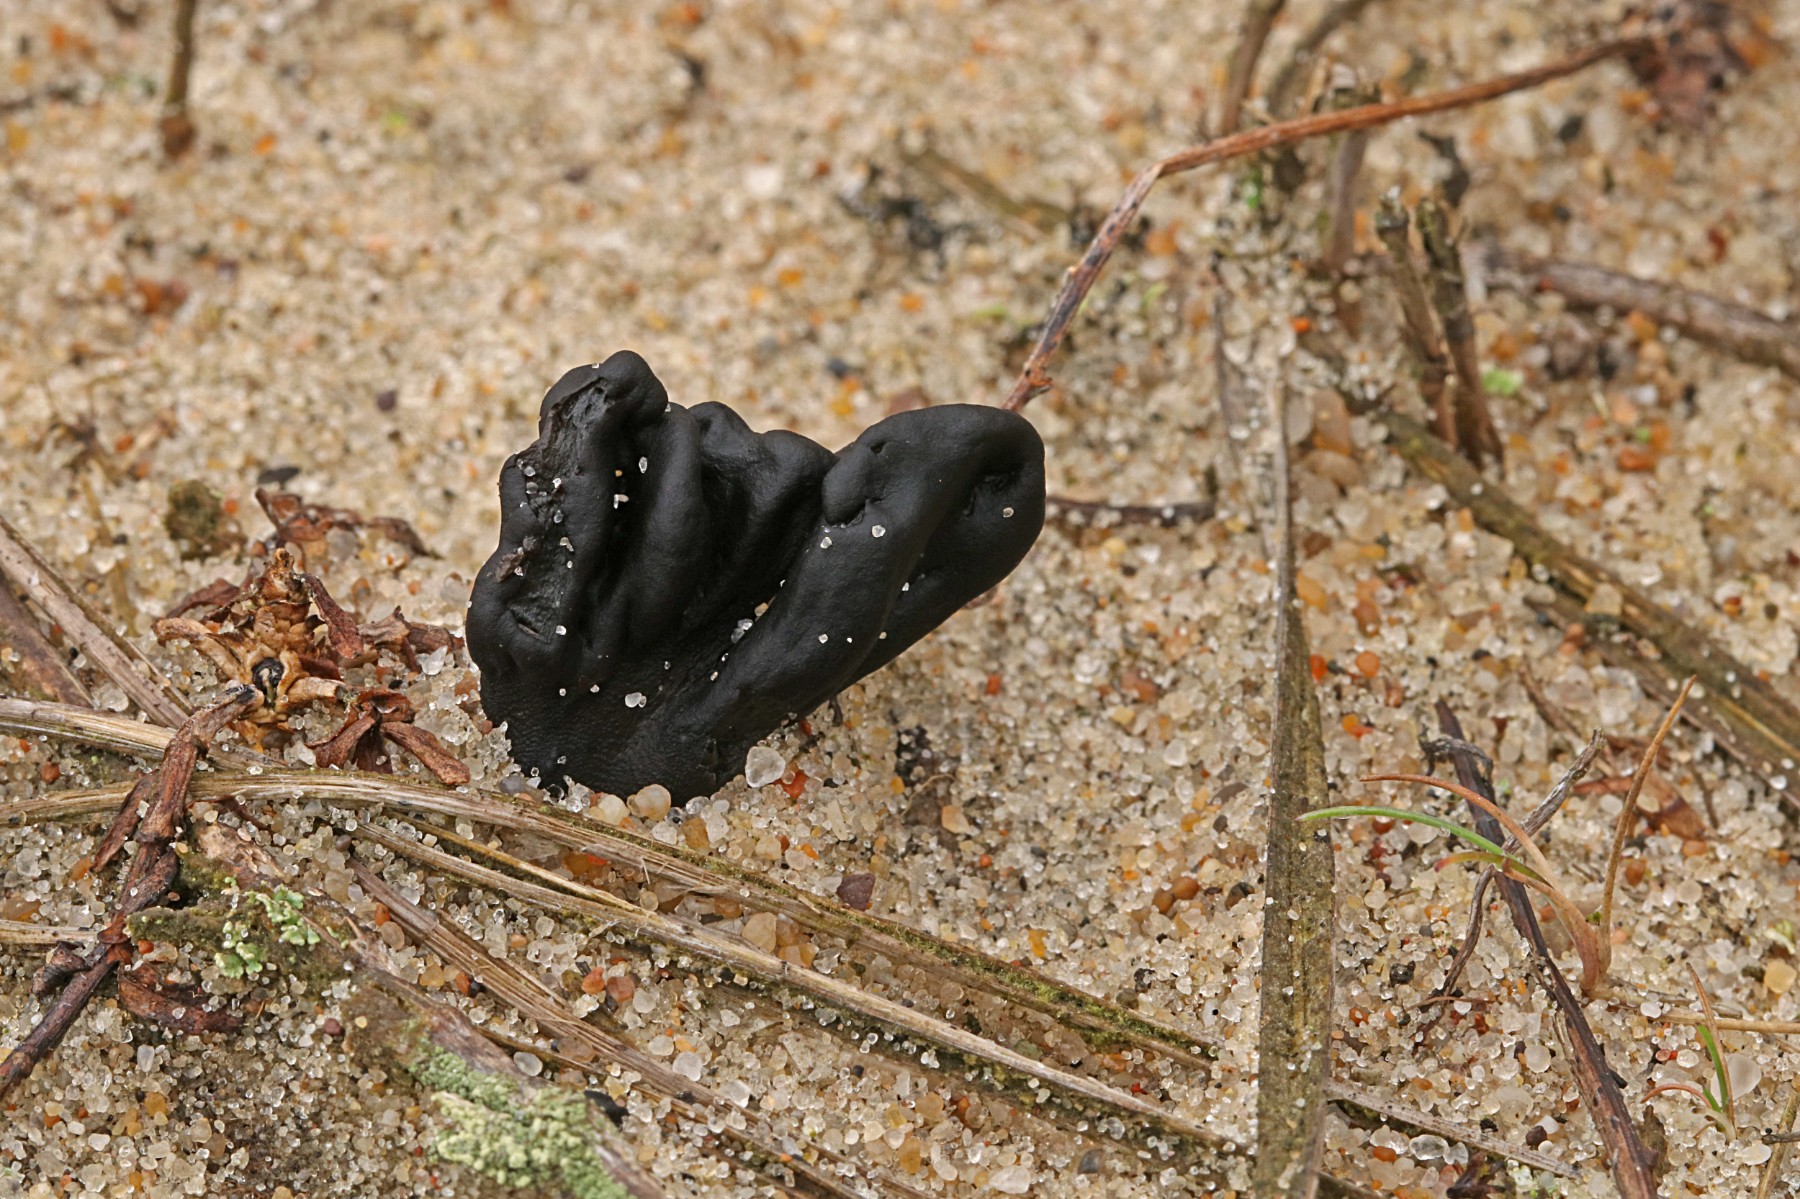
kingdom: Fungi
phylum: Ascomycota
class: Geoglossomycetes
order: Geoglossales
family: Geoglossaceae
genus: Sabuloglossum
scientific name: Sabuloglossum arenarium
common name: klit-jordtunge
